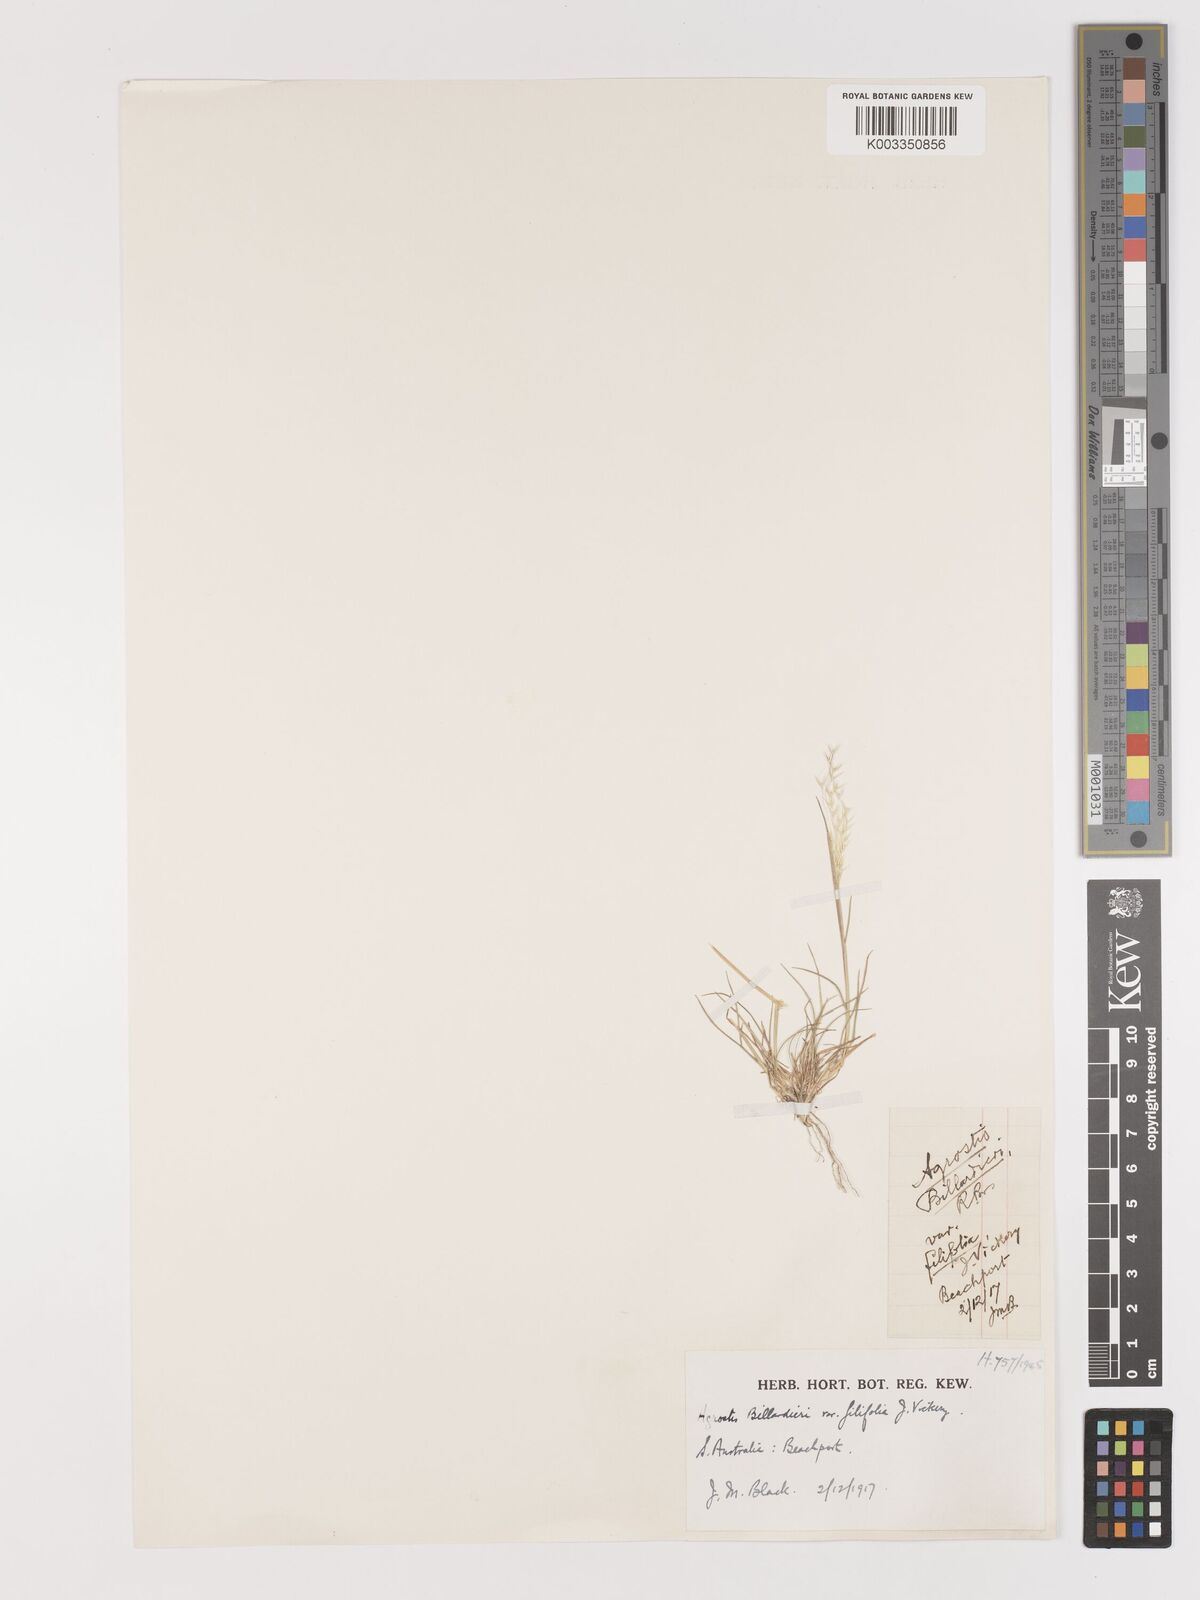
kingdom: Plantae
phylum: Tracheophyta
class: Liliopsida
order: Poales
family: Poaceae
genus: Lachnagrostis
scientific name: Lachnagrostis semibarbata
